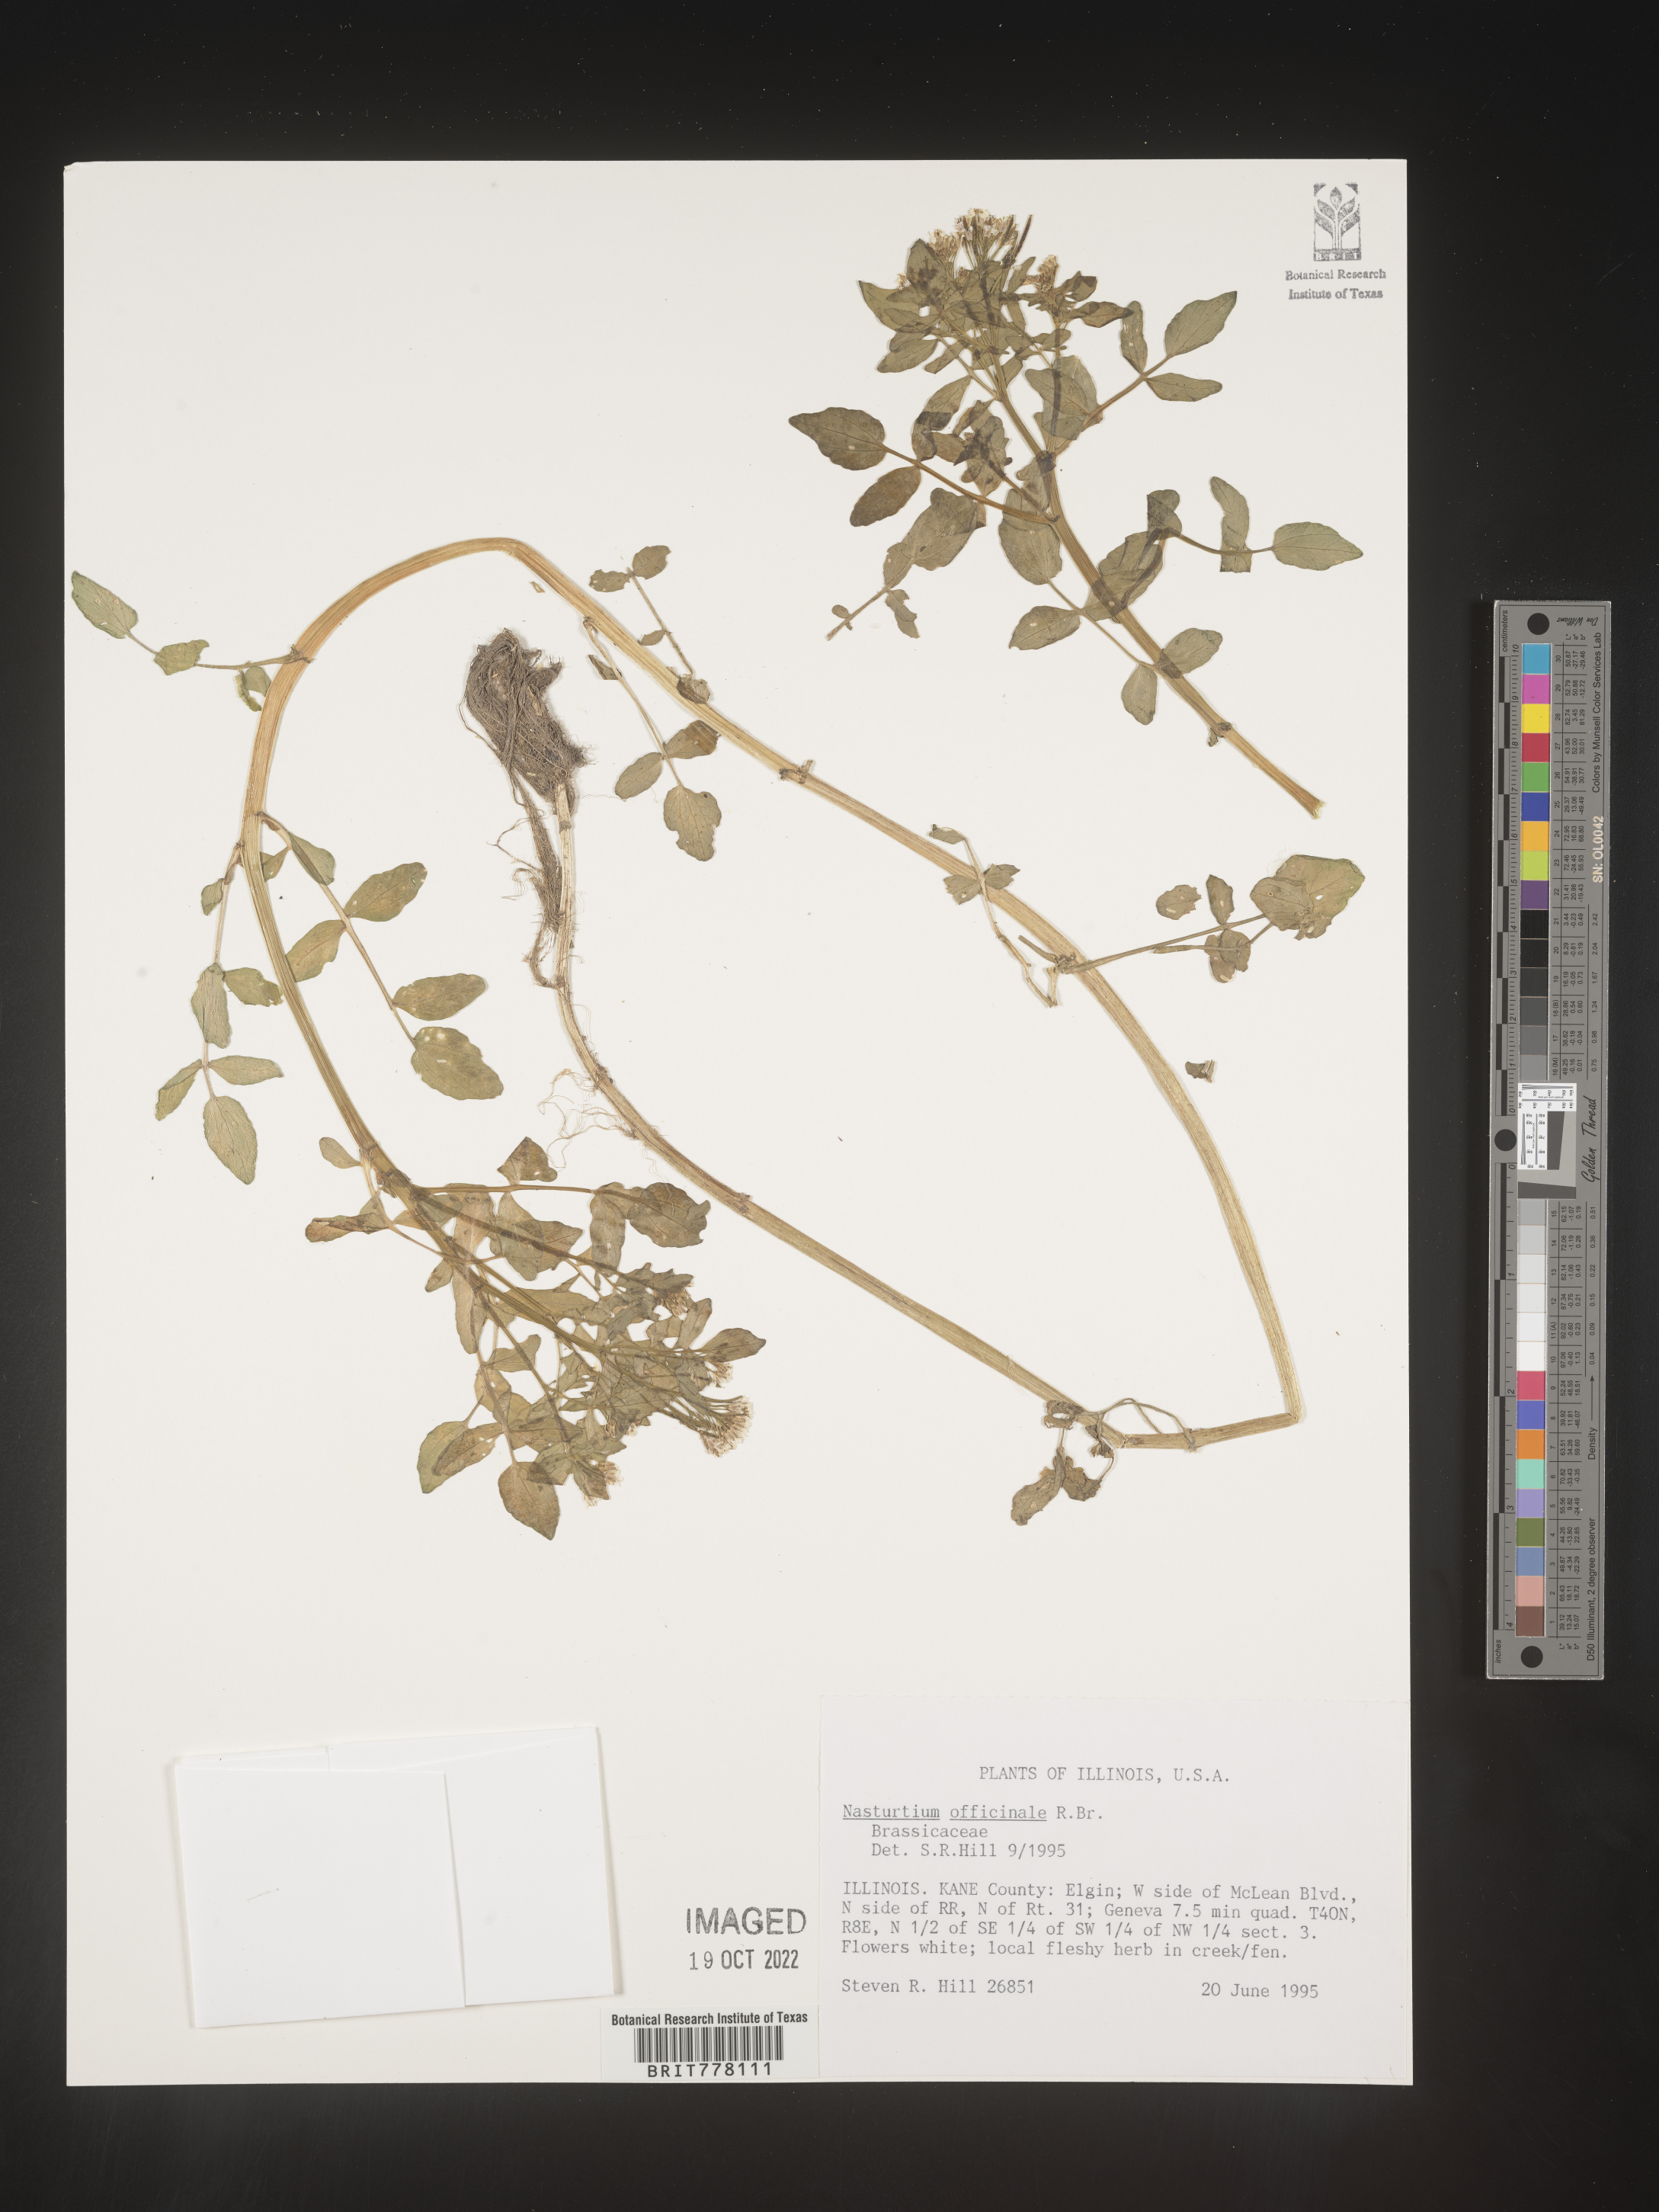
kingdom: Plantae
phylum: Tracheophyta
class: Magnoliopsida
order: Brassicales
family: Brassicaceae
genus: Nasturtium
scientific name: Nasturtium
